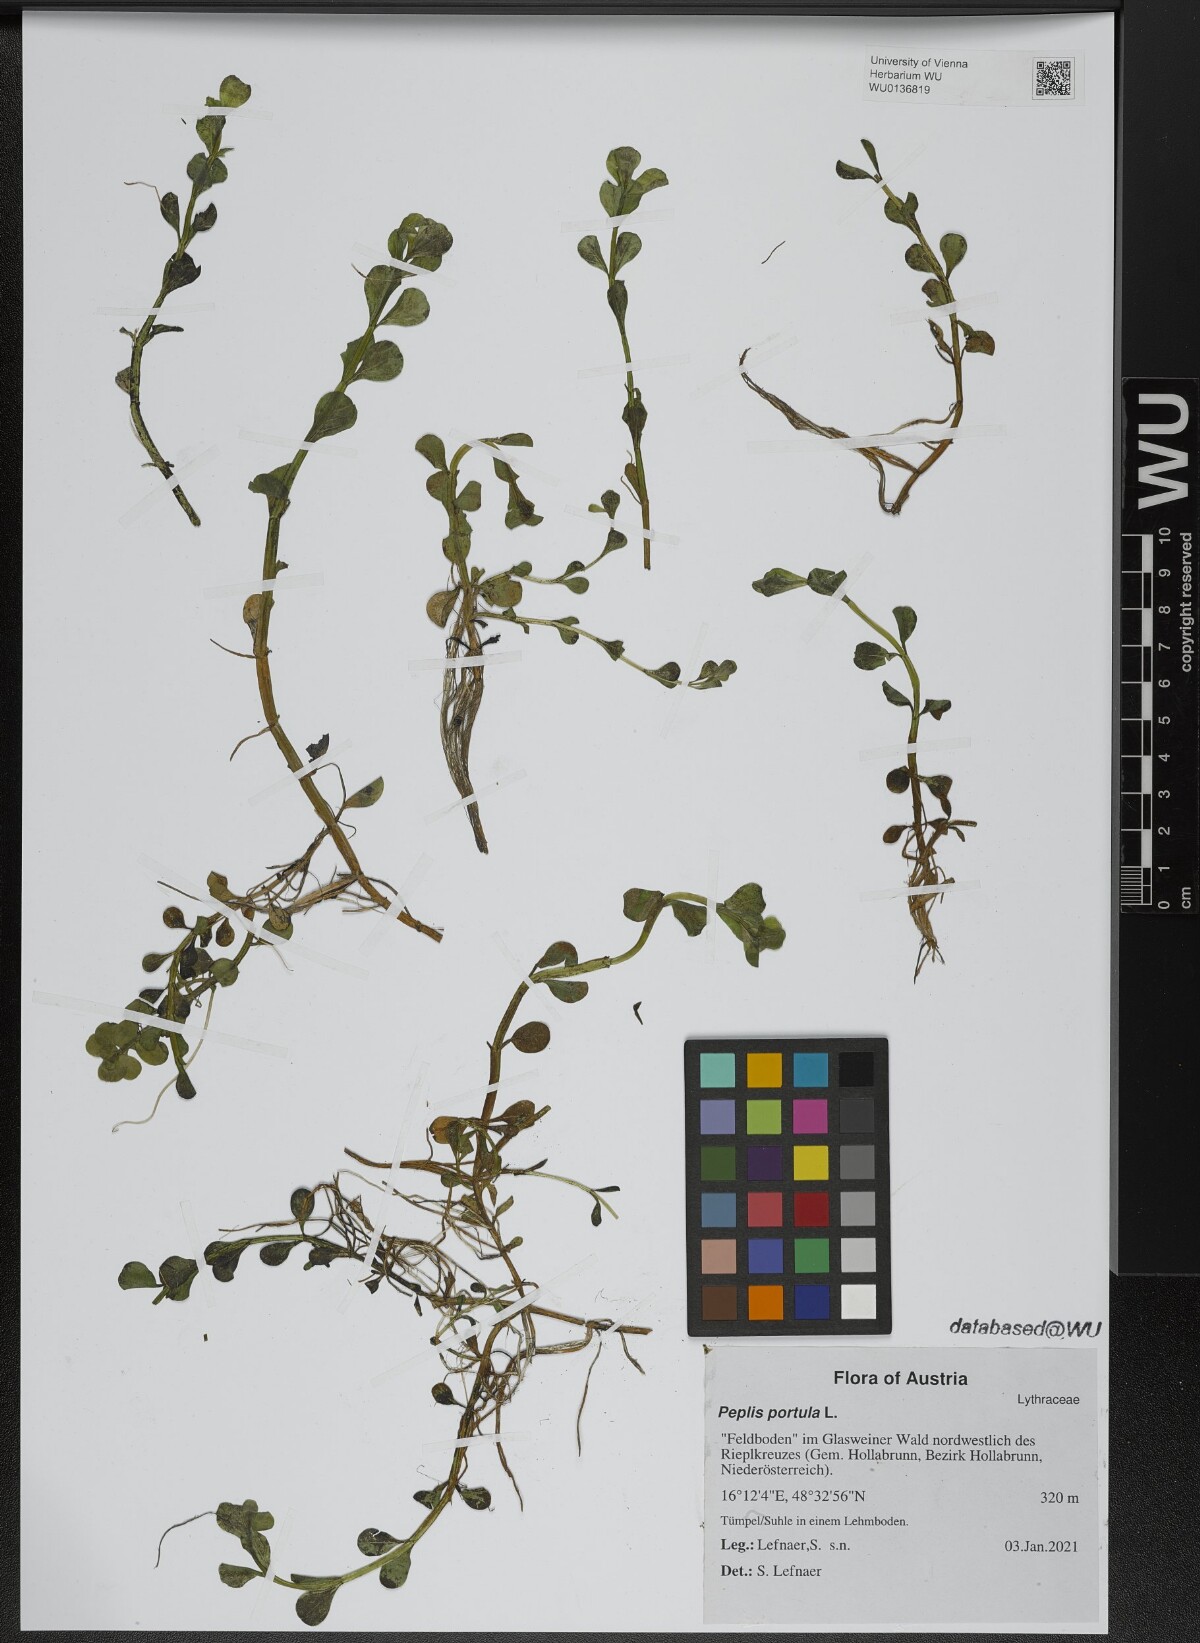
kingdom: Plantae
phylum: Tracheophyta
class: Magnoliopsida
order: Myrtales
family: Lythraceae
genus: Lythrum
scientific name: Lythrum portula
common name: Water purslane
